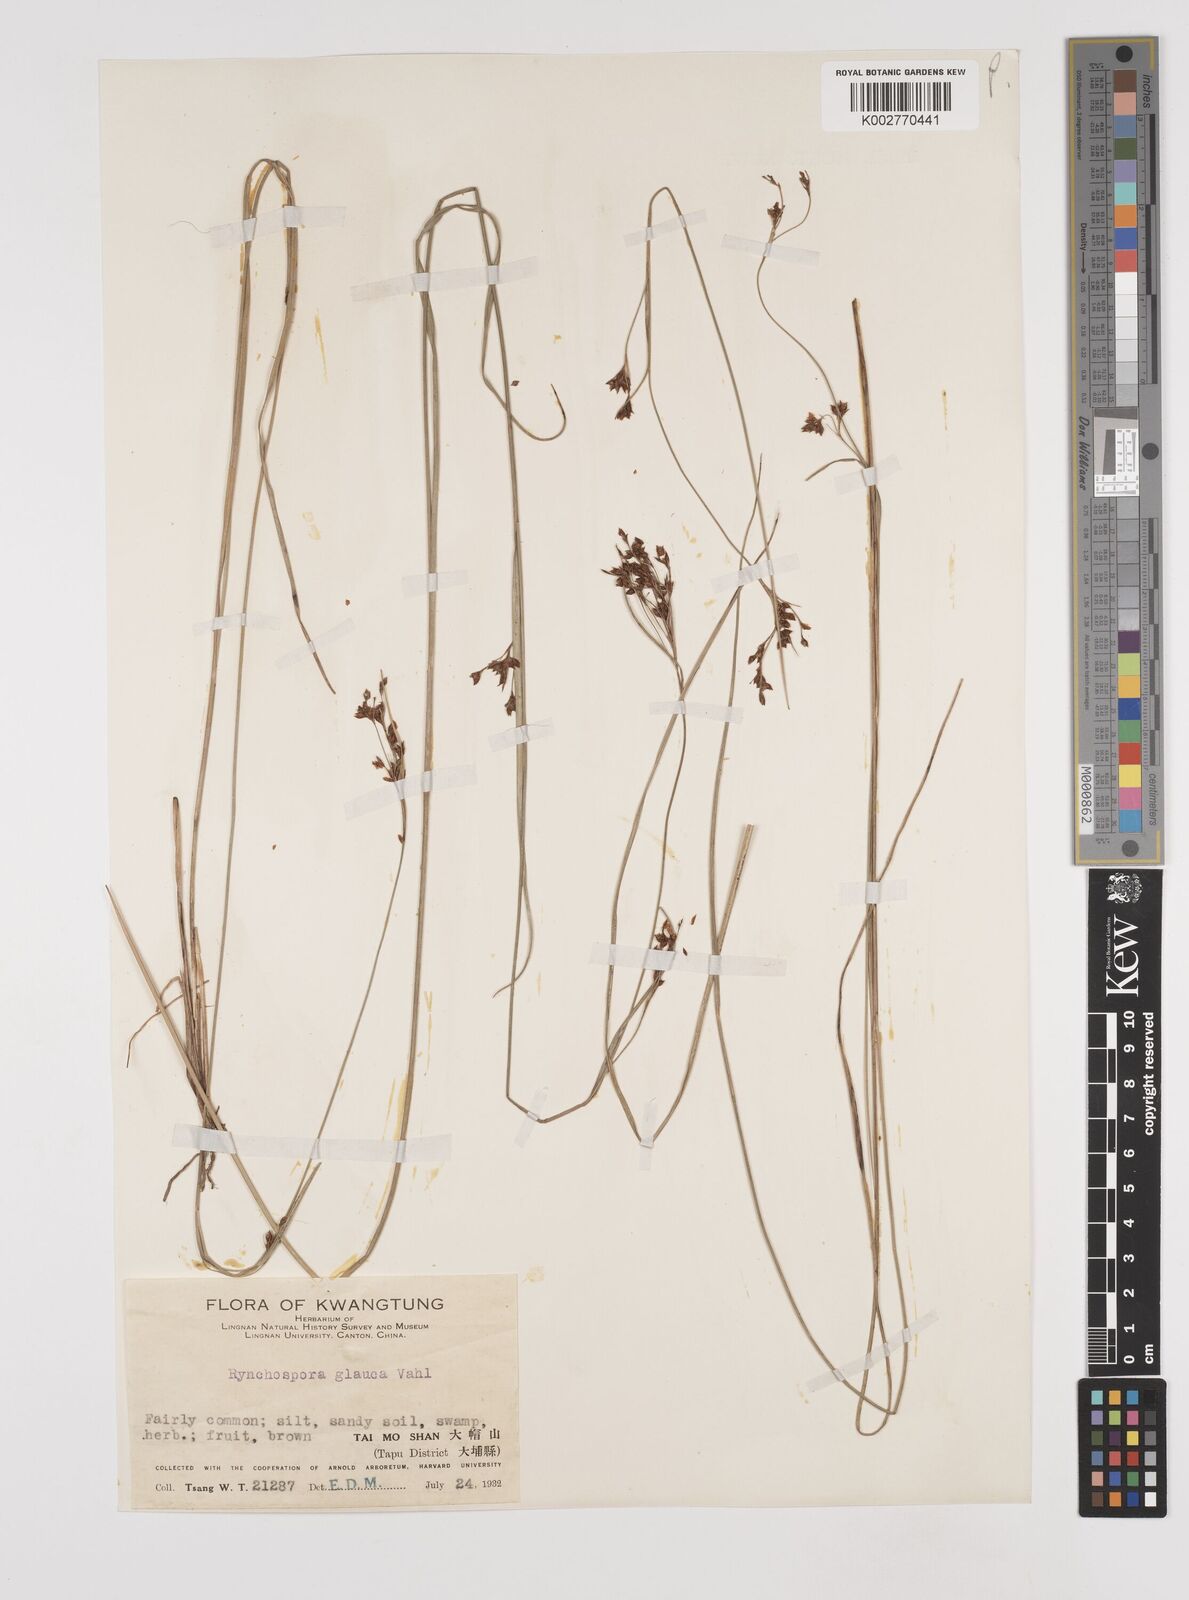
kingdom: Plantae
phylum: Tracheophyta
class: Liliopsida
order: Poales
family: Cyperaceae
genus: Rhynchospora
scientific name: Rhynchospora
